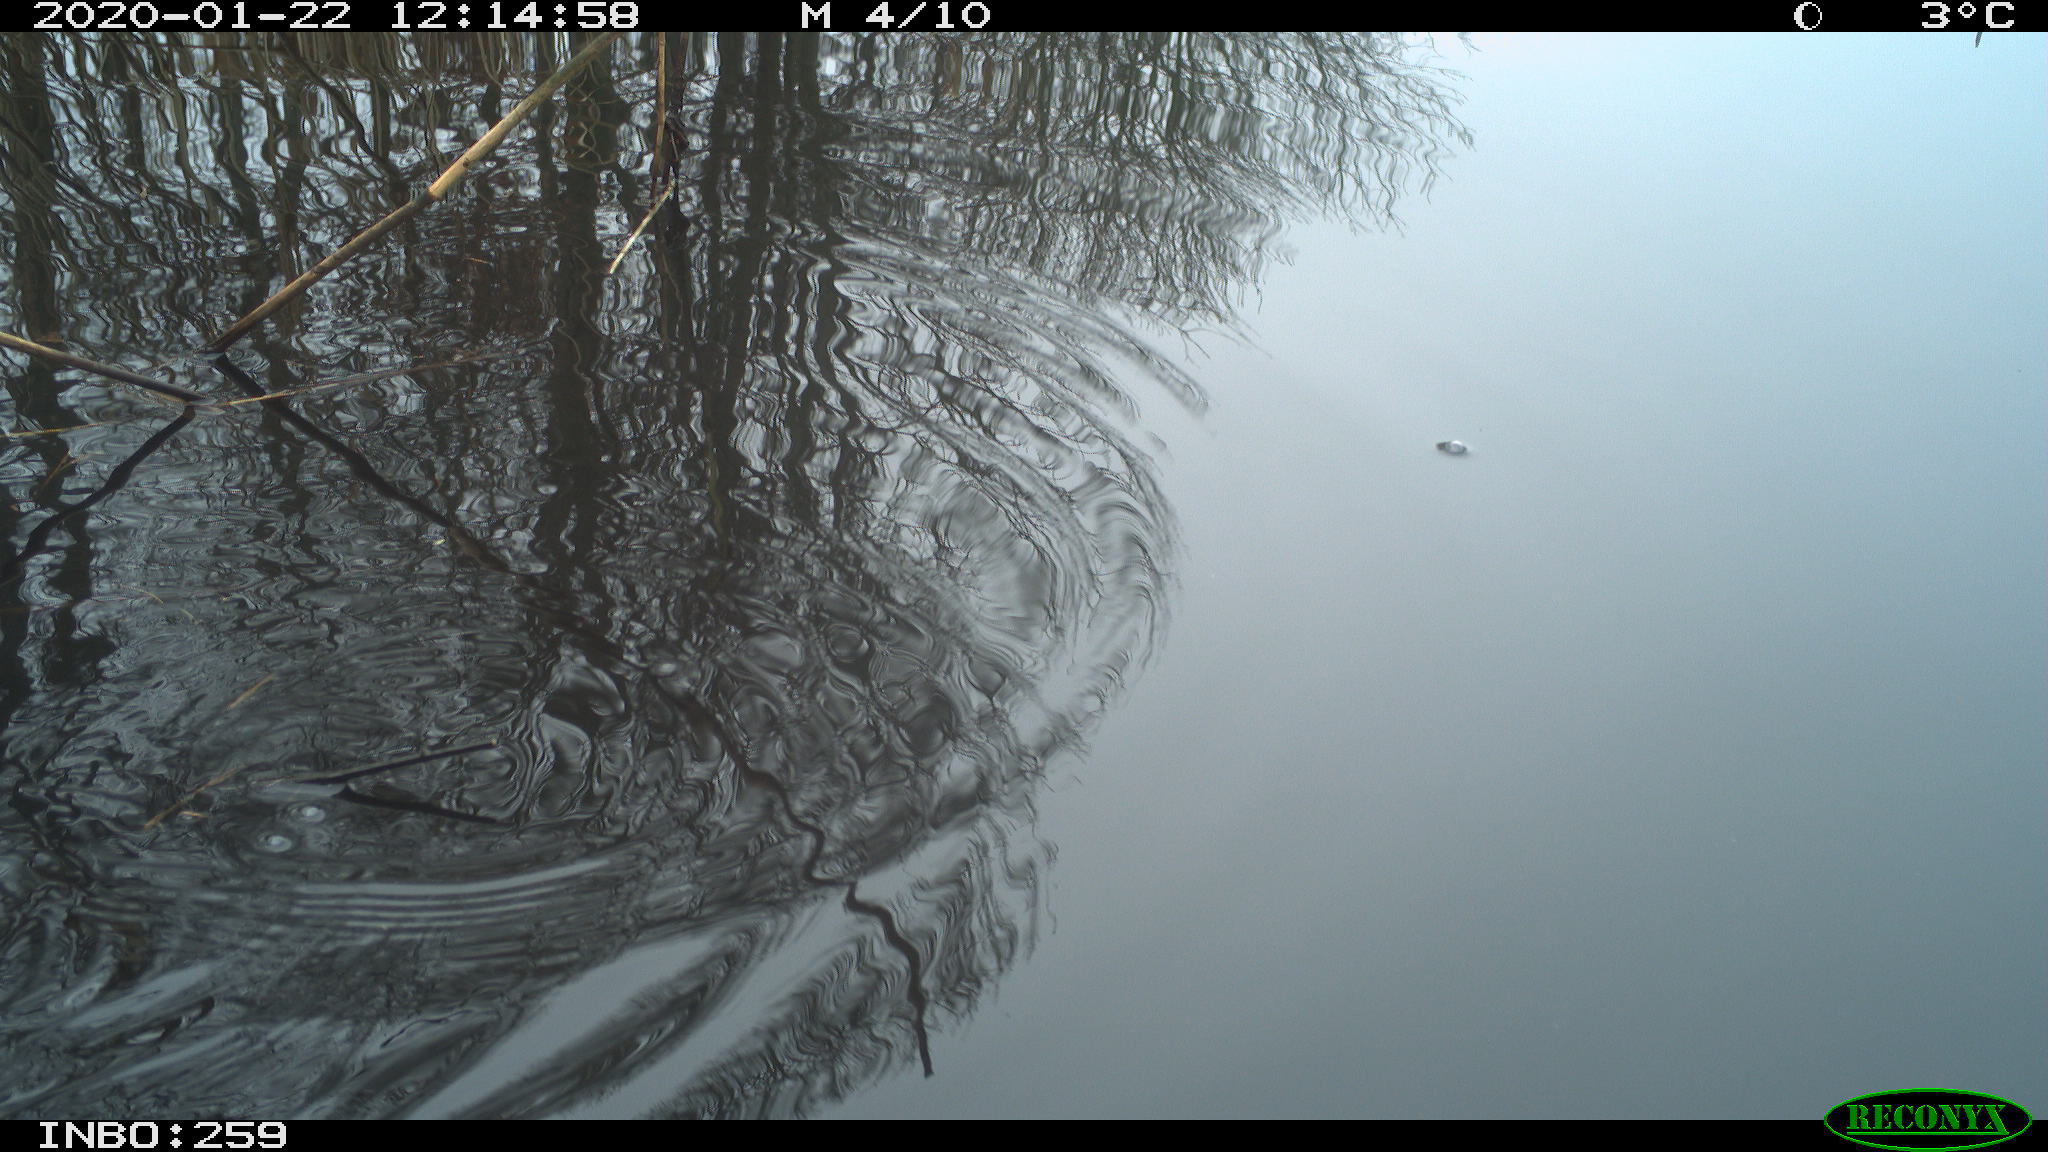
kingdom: Animalia
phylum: Chordata
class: Aves
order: Gruiformes
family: Rallidae
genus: Gallinula
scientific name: Gallinula chloropus
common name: Common moorhen
